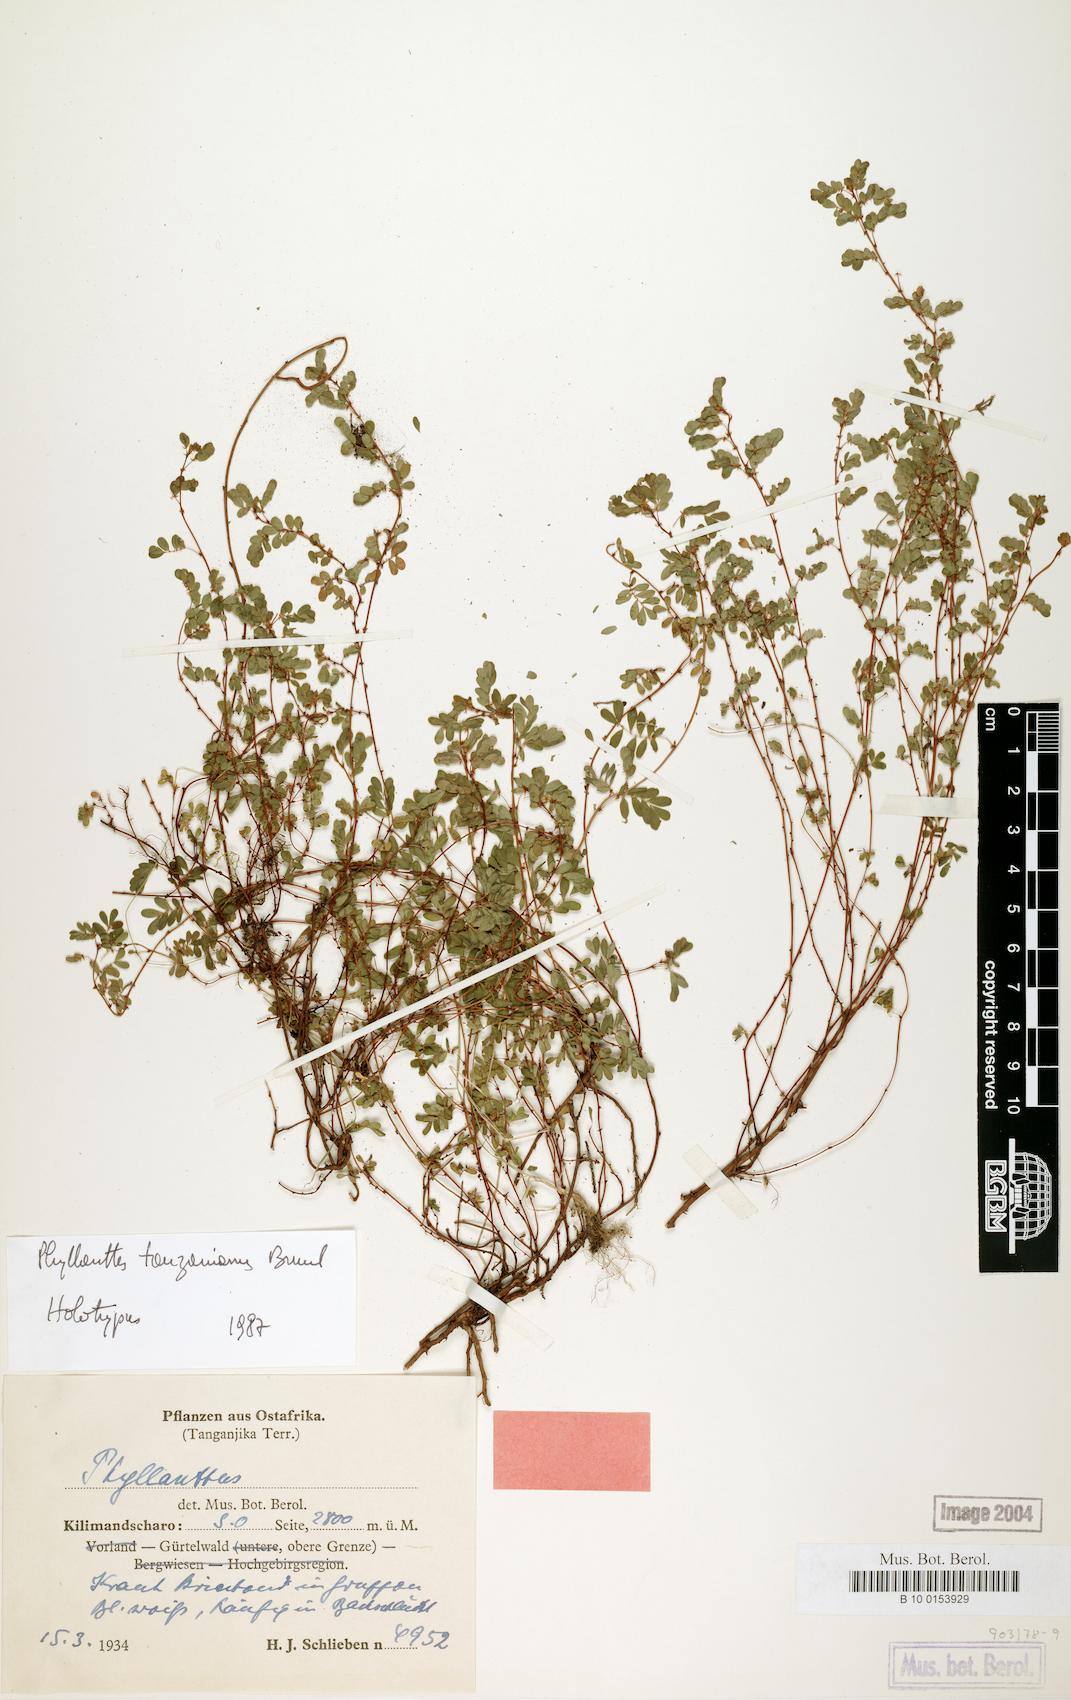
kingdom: Plantae
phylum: Tracheophyta
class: Magnoliopsida
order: Malpighiales
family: Phyllanthaceae
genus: Phyllanthus
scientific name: Phyllanthus tanzaniensis
